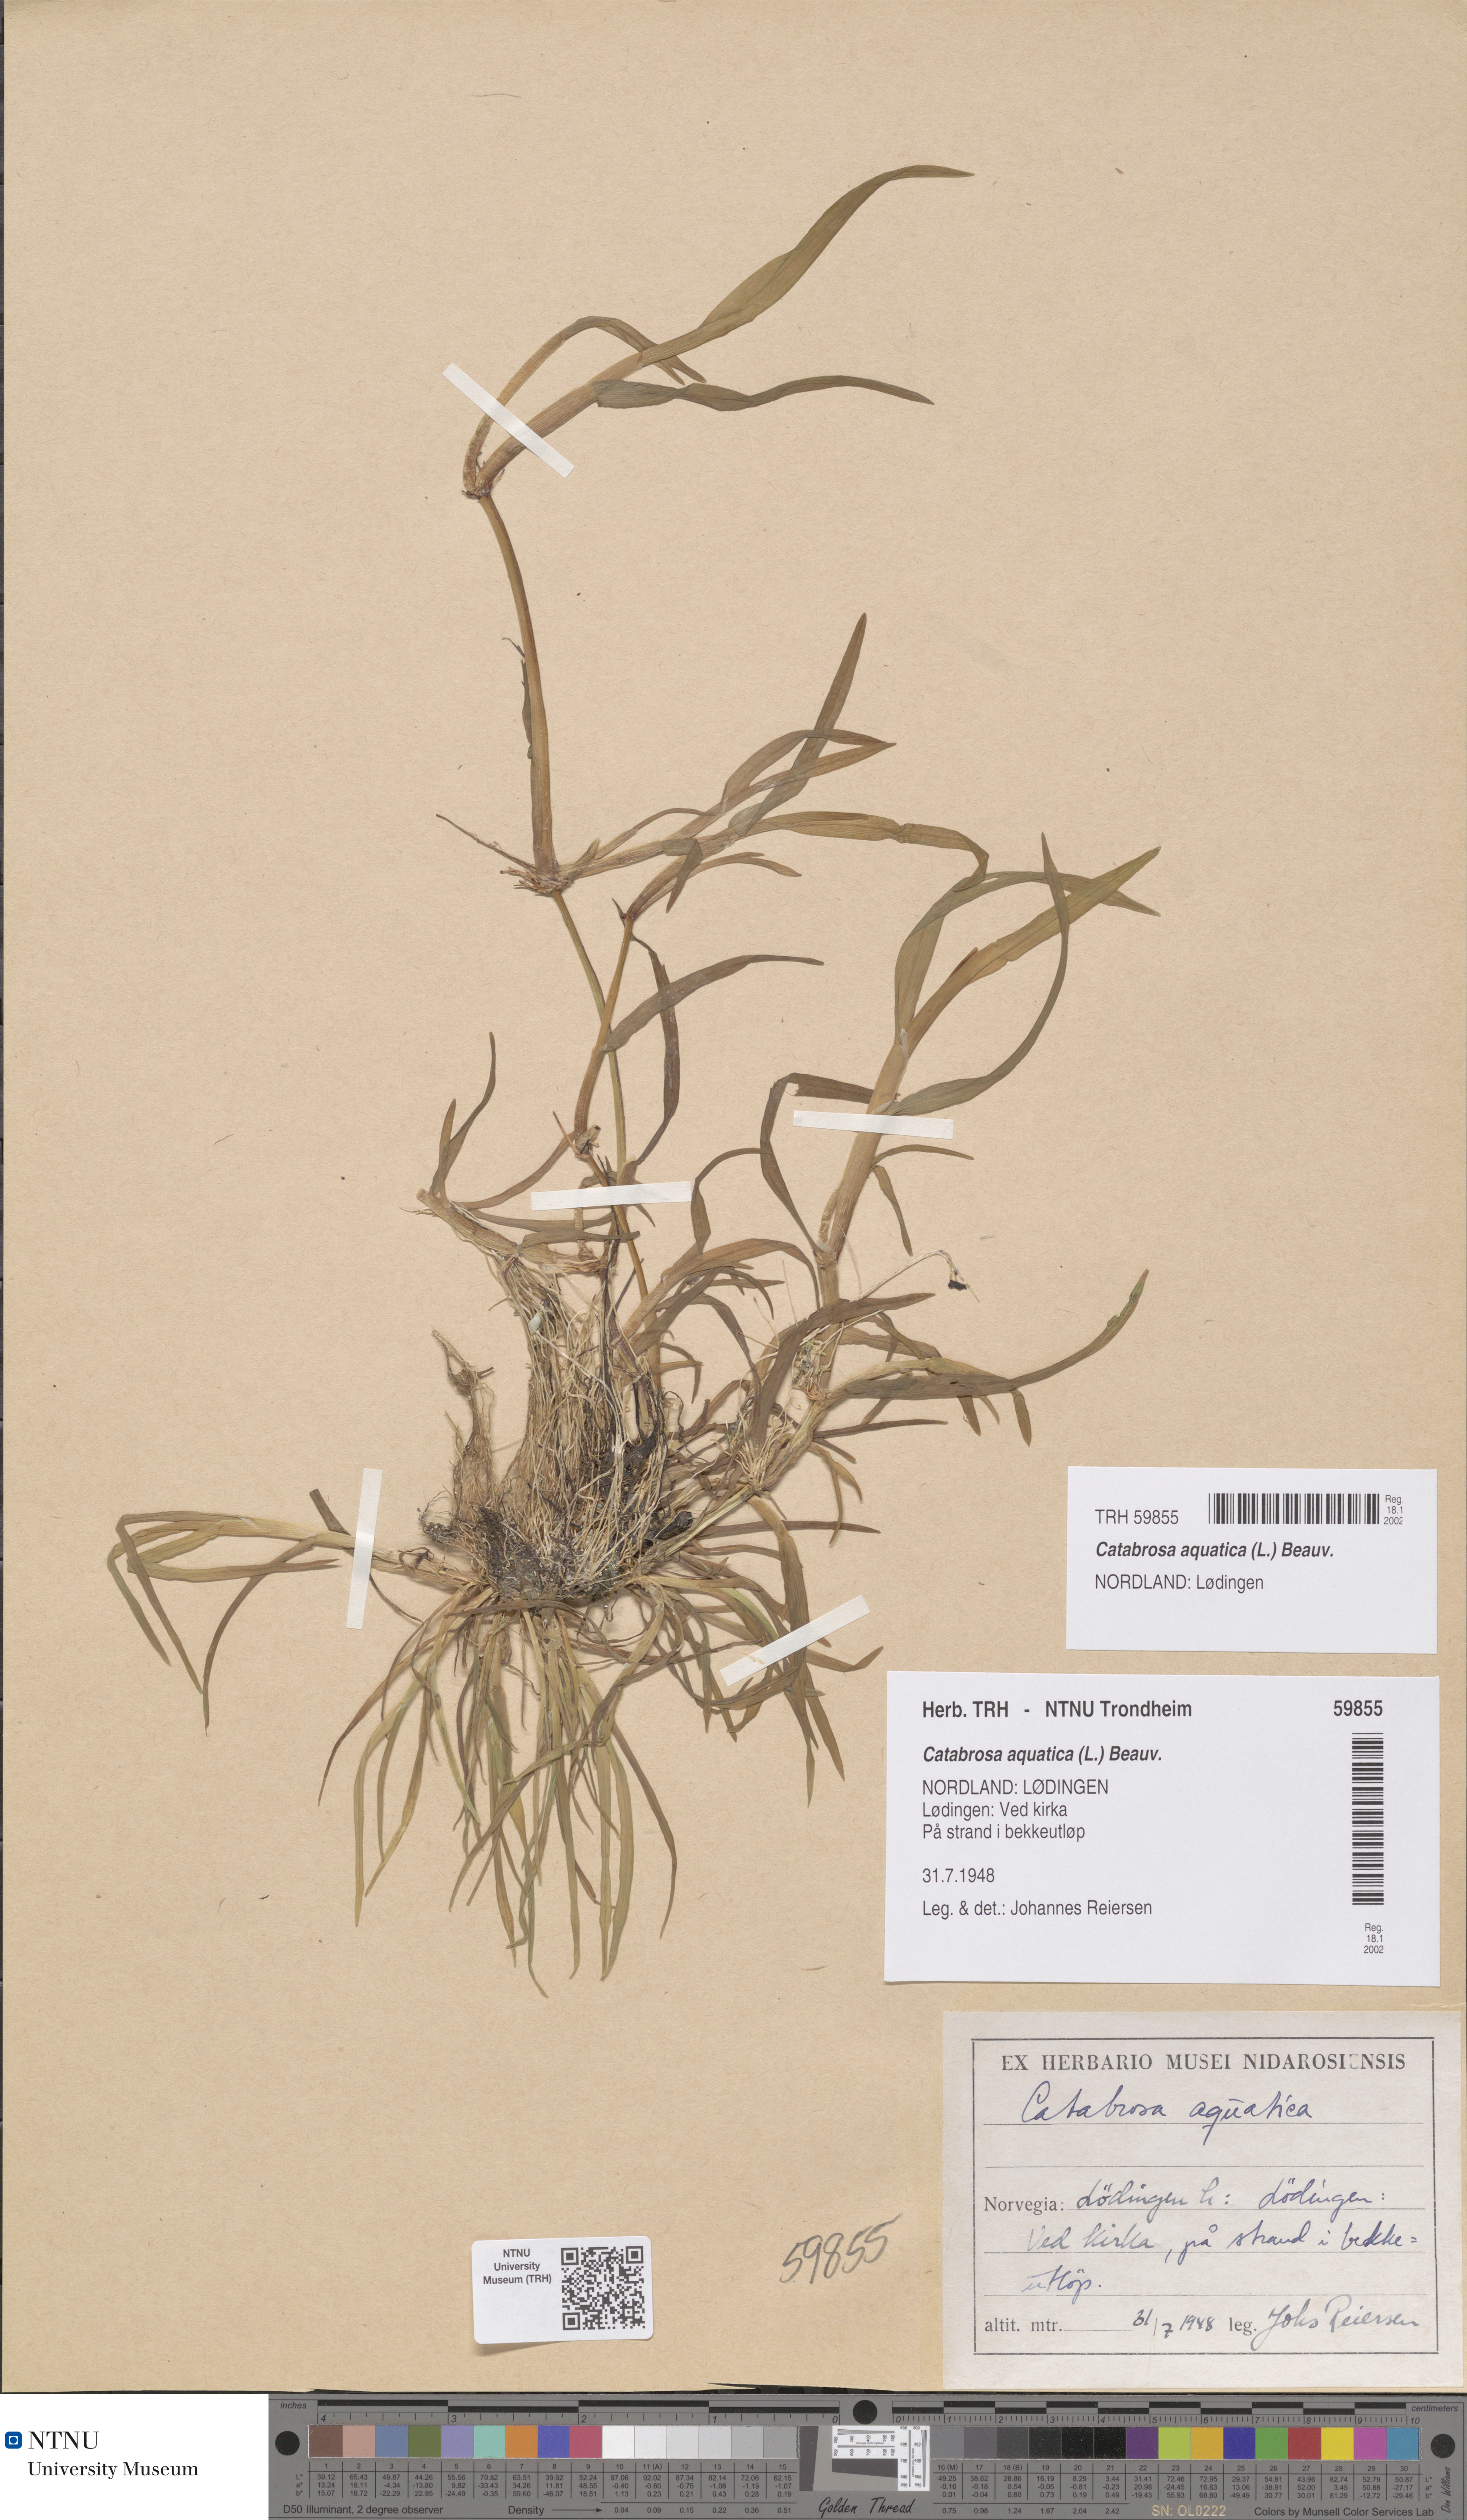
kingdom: Plantae
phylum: Tracheophyta
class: Liliopsida
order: Poales
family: Poaceae
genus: Catabrosa
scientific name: Catabrosa aquatica
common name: Whorl-grass
